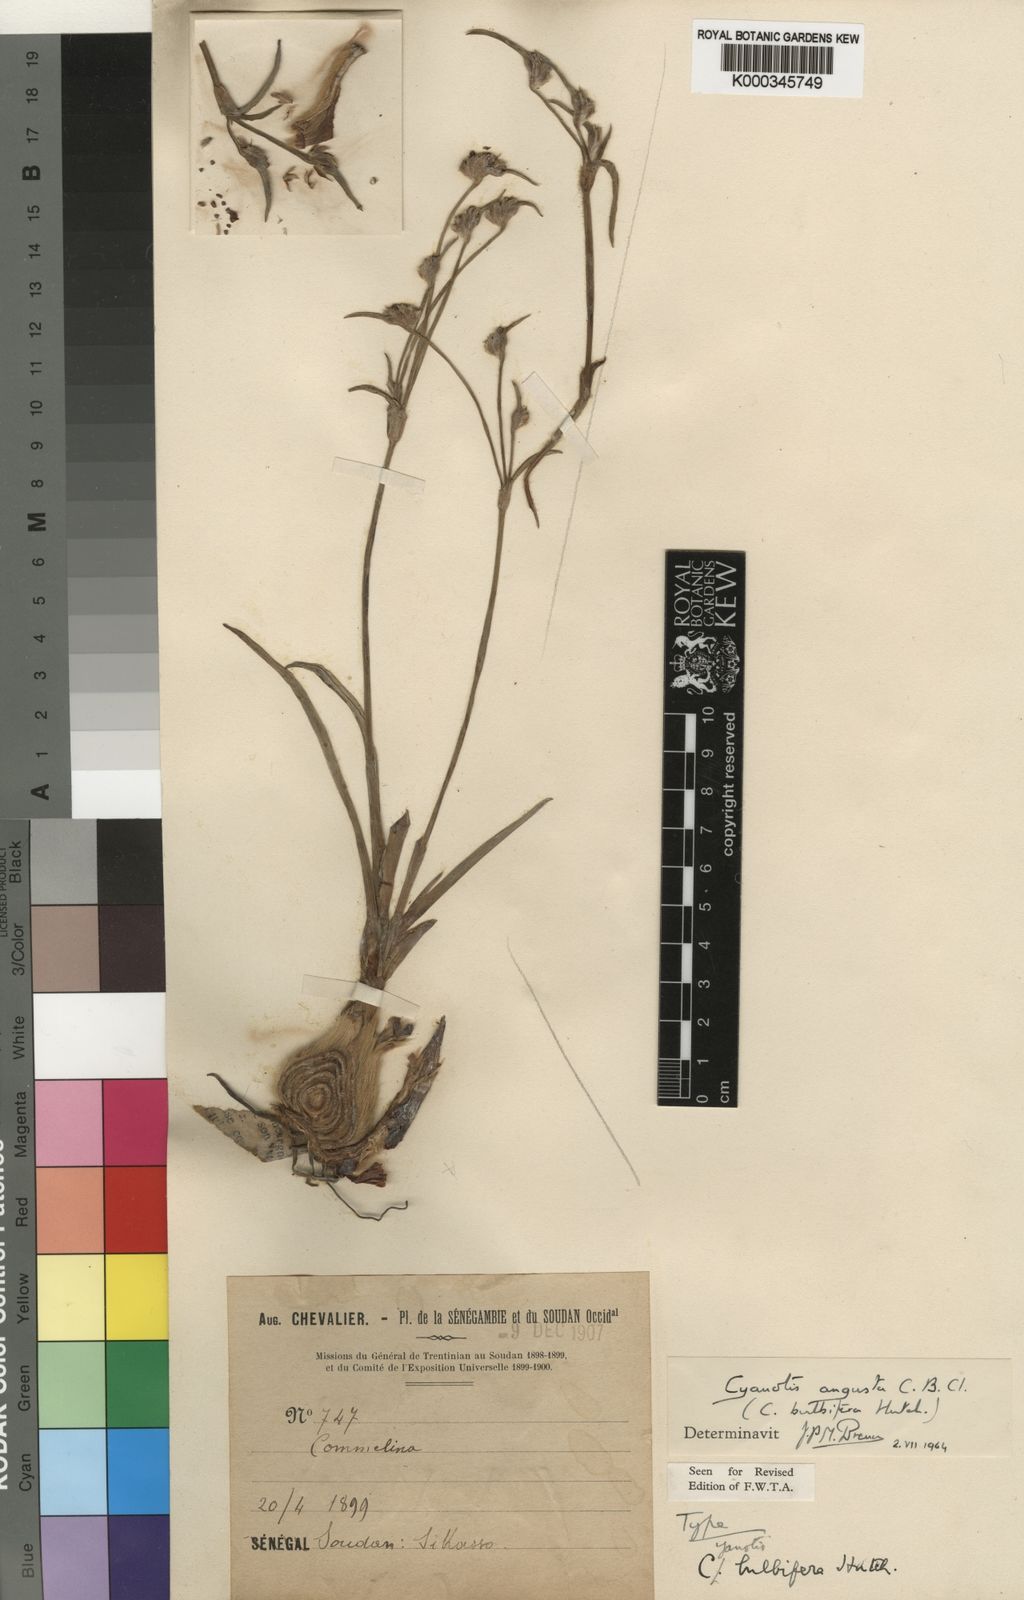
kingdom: Plantae
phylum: Tracheophyta
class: Liliopsida
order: Commelinales
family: Commelinaceae
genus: Cyanotis
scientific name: Cyanotis angusta
